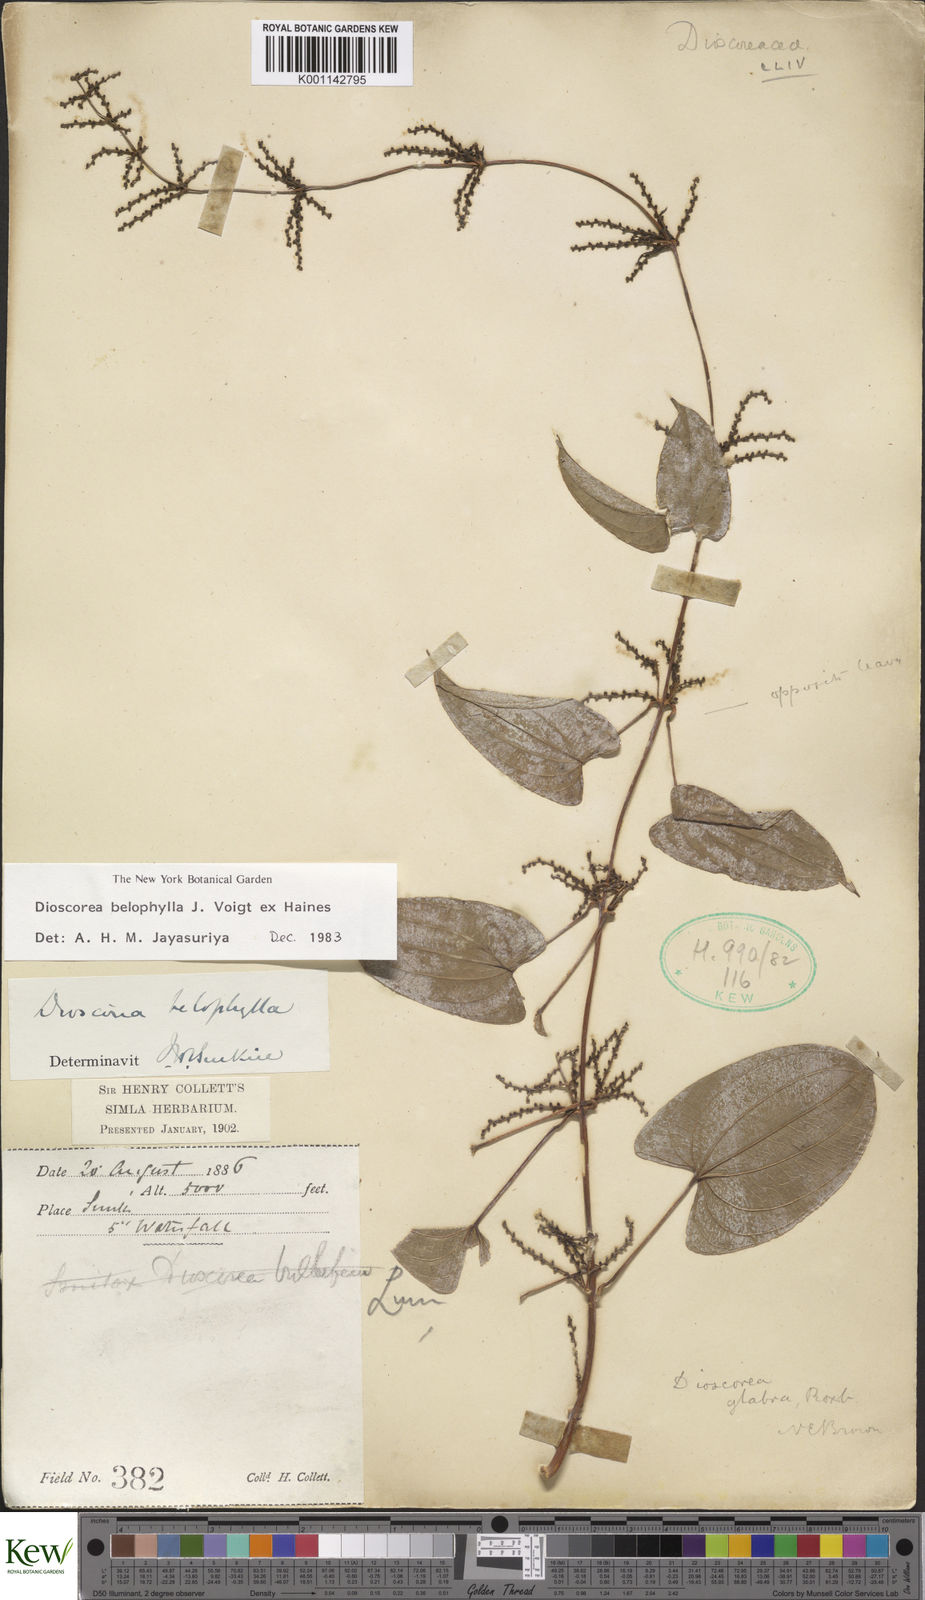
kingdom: Plantae
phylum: Tracheophyta
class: Liliopsida
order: Dioscoreales
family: Dioscoreaceae
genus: Dioscorea
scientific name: Dioscorea belophylla
